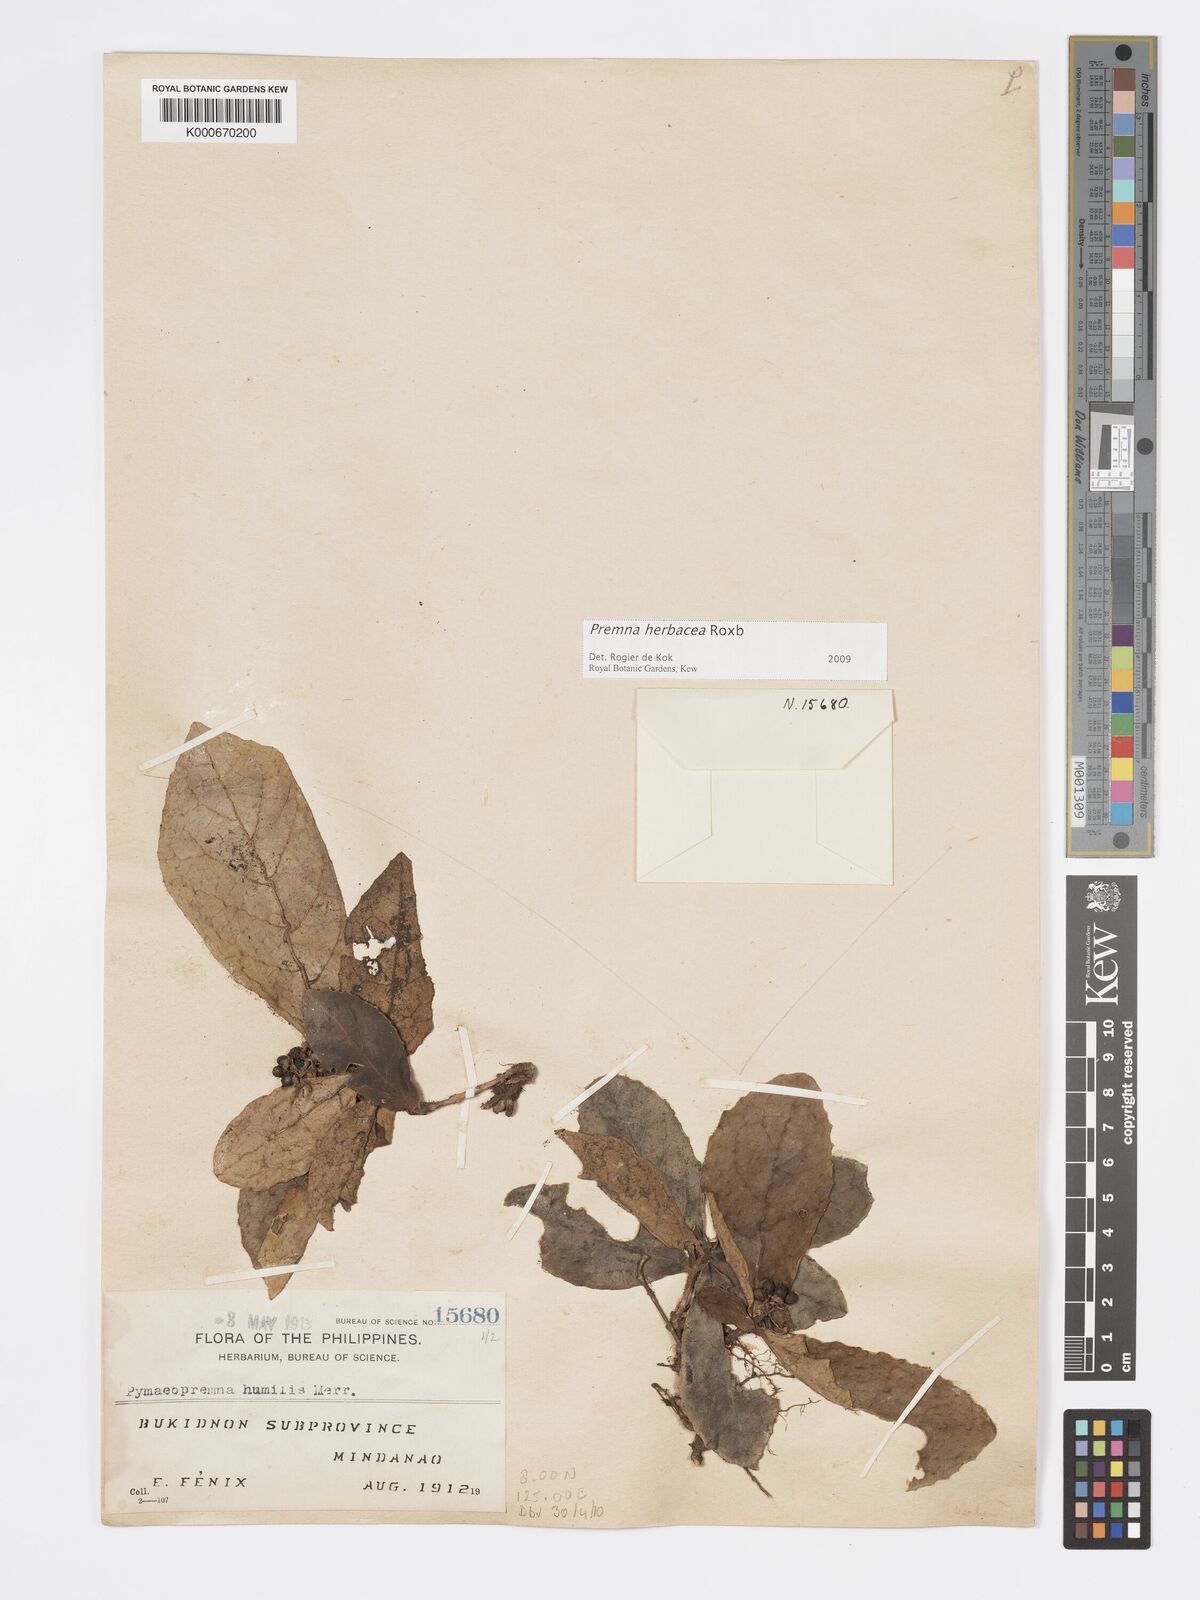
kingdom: Plantae
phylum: Tracheophyta
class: Magnoliopsida
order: Lamiales
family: Lamiaceae
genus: Premna
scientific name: Premna herbacea
